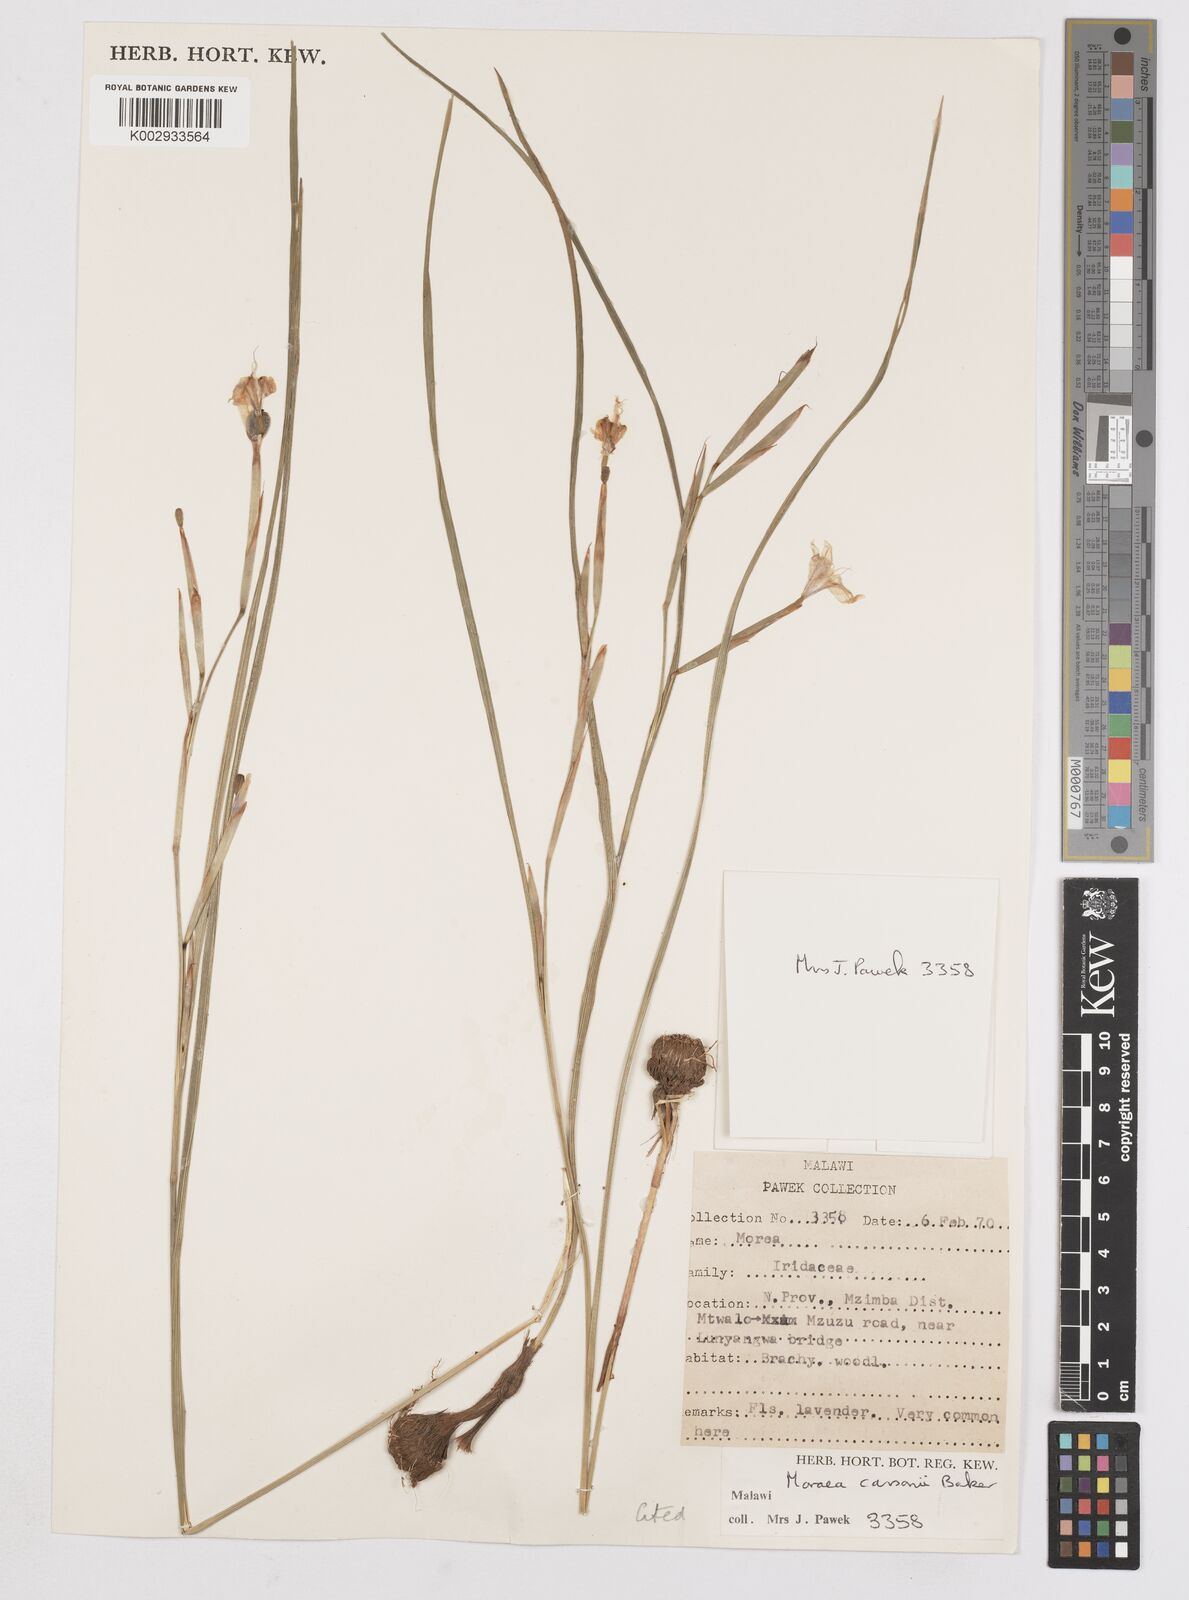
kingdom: Plantae
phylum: Tracheophyta
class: Liliopsida
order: Asparagales
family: Iridaceae
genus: Moraea
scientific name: Moraea carsonii
